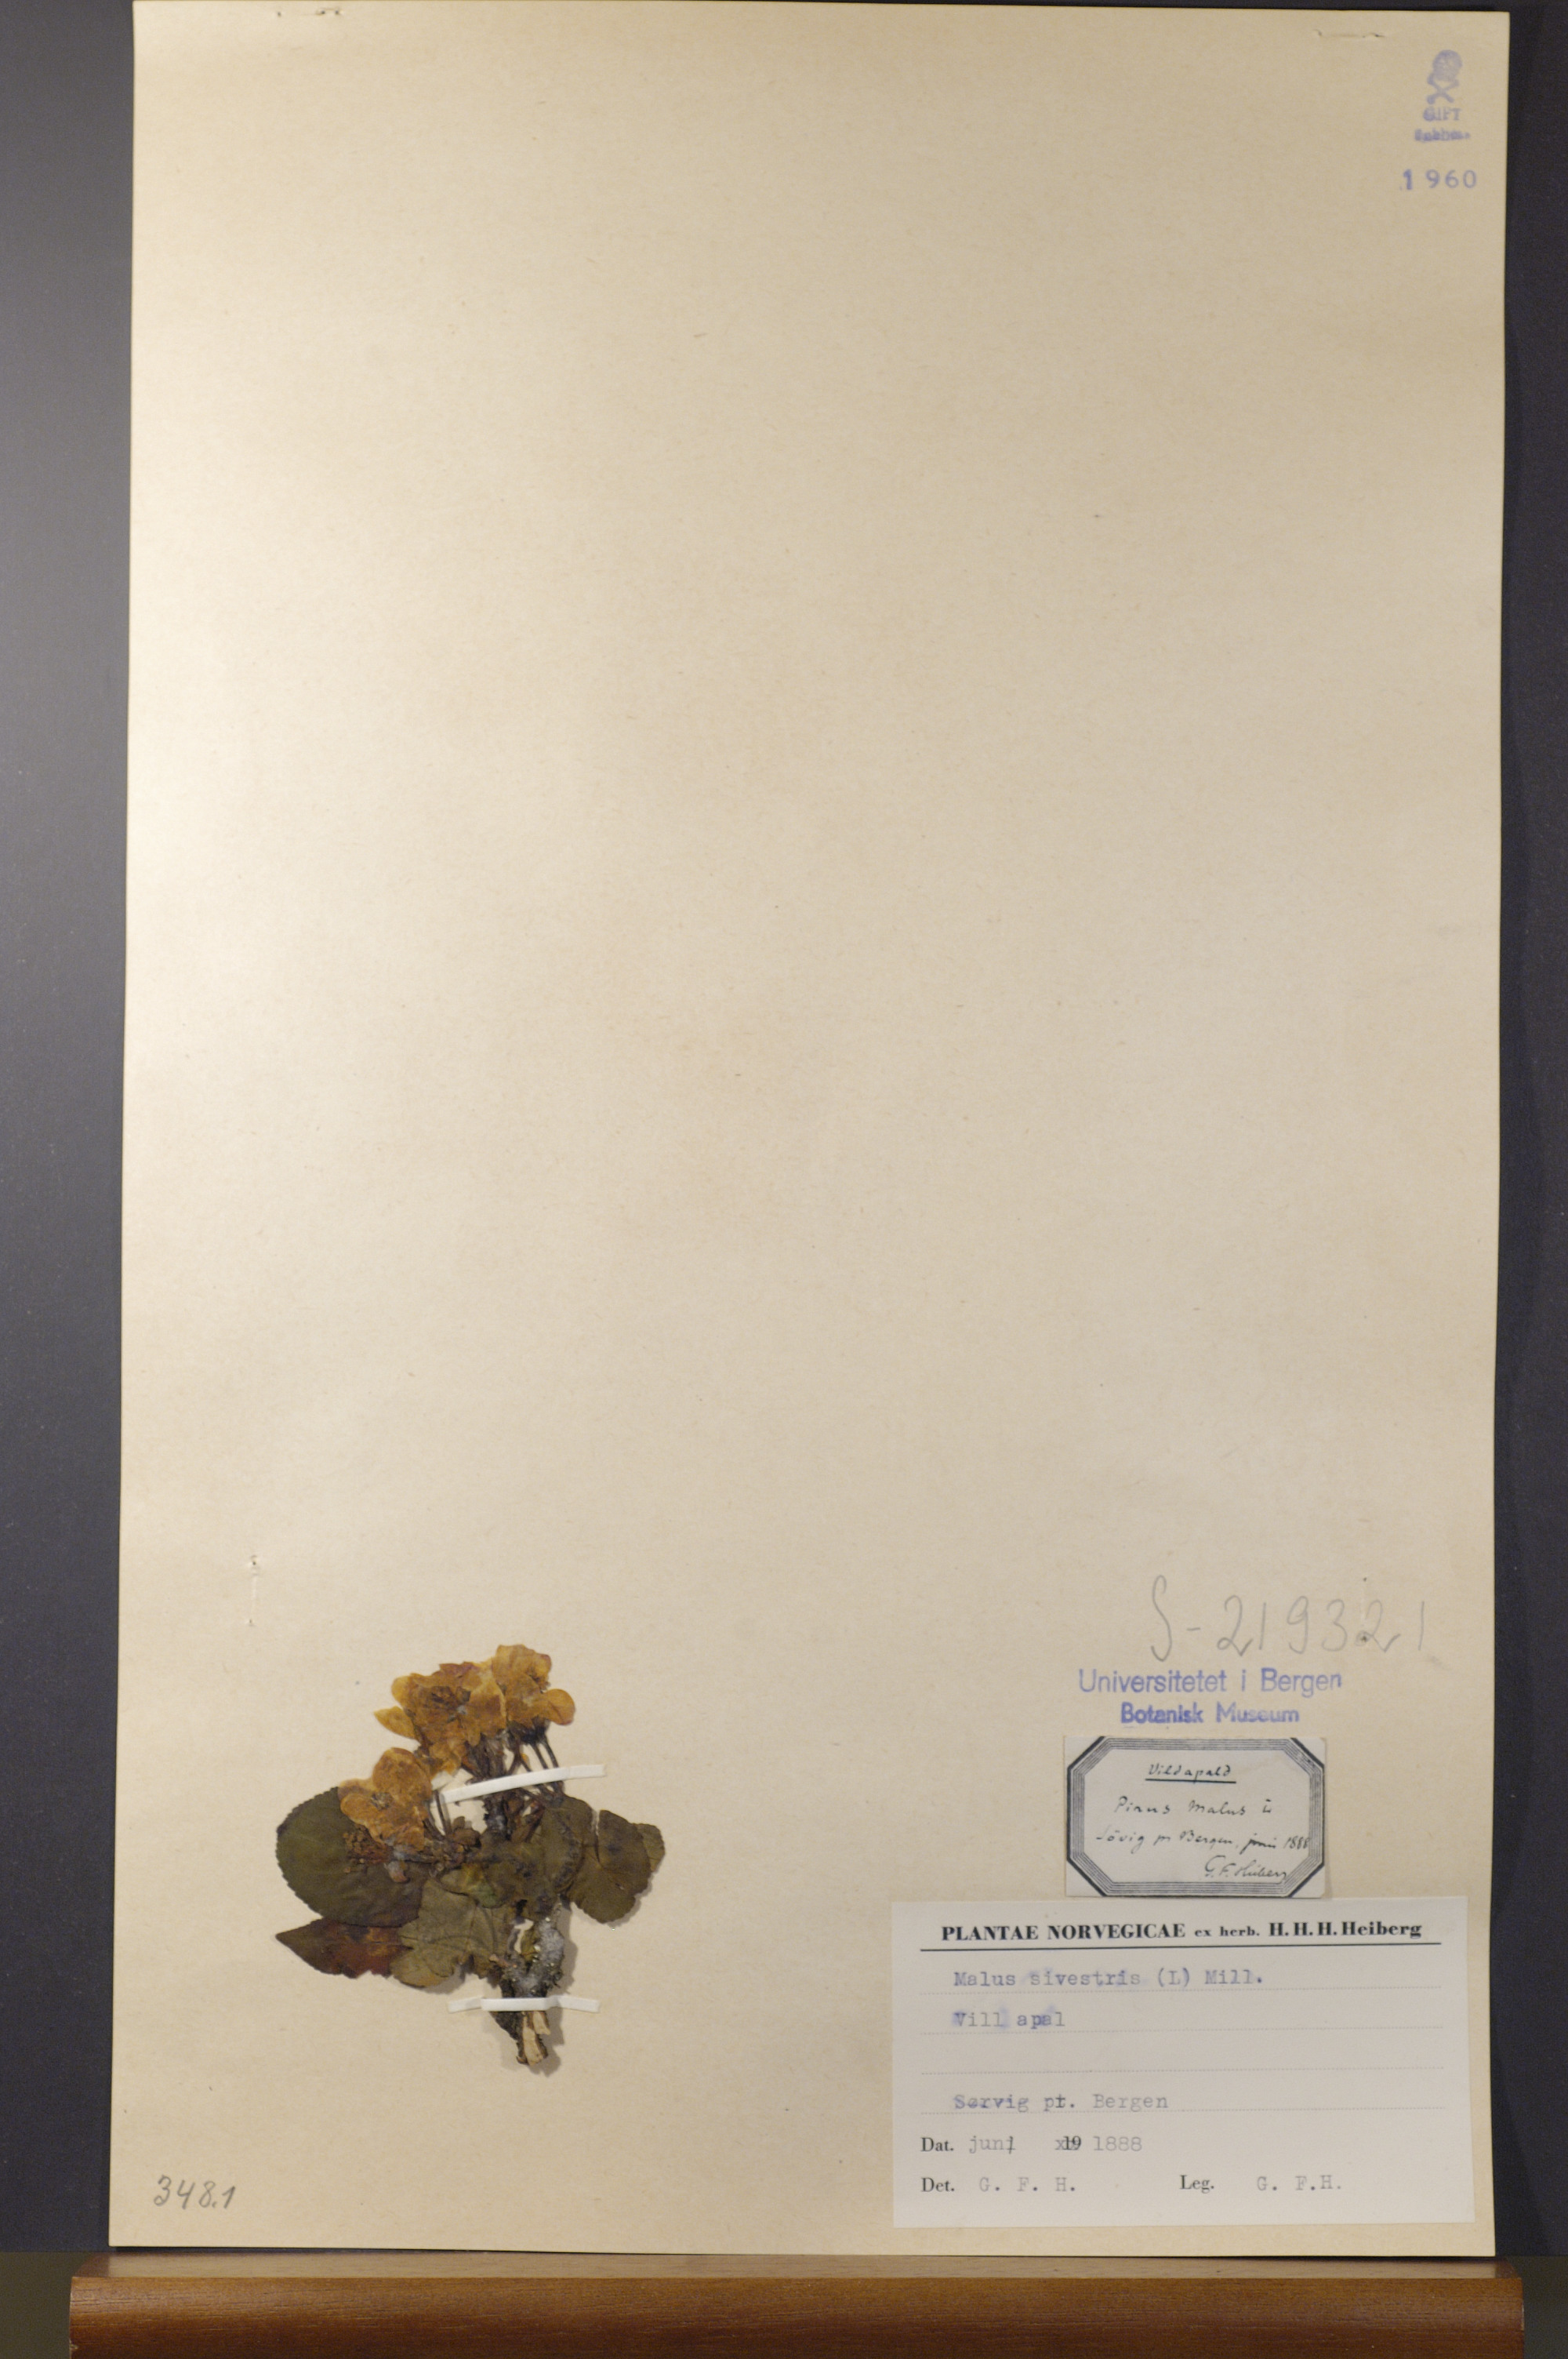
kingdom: Plantae
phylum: Tracheophyta
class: Magnoliopsida
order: Rosales
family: Rosaceae
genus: Malus
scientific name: Malus sylvestris
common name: Crab apple
